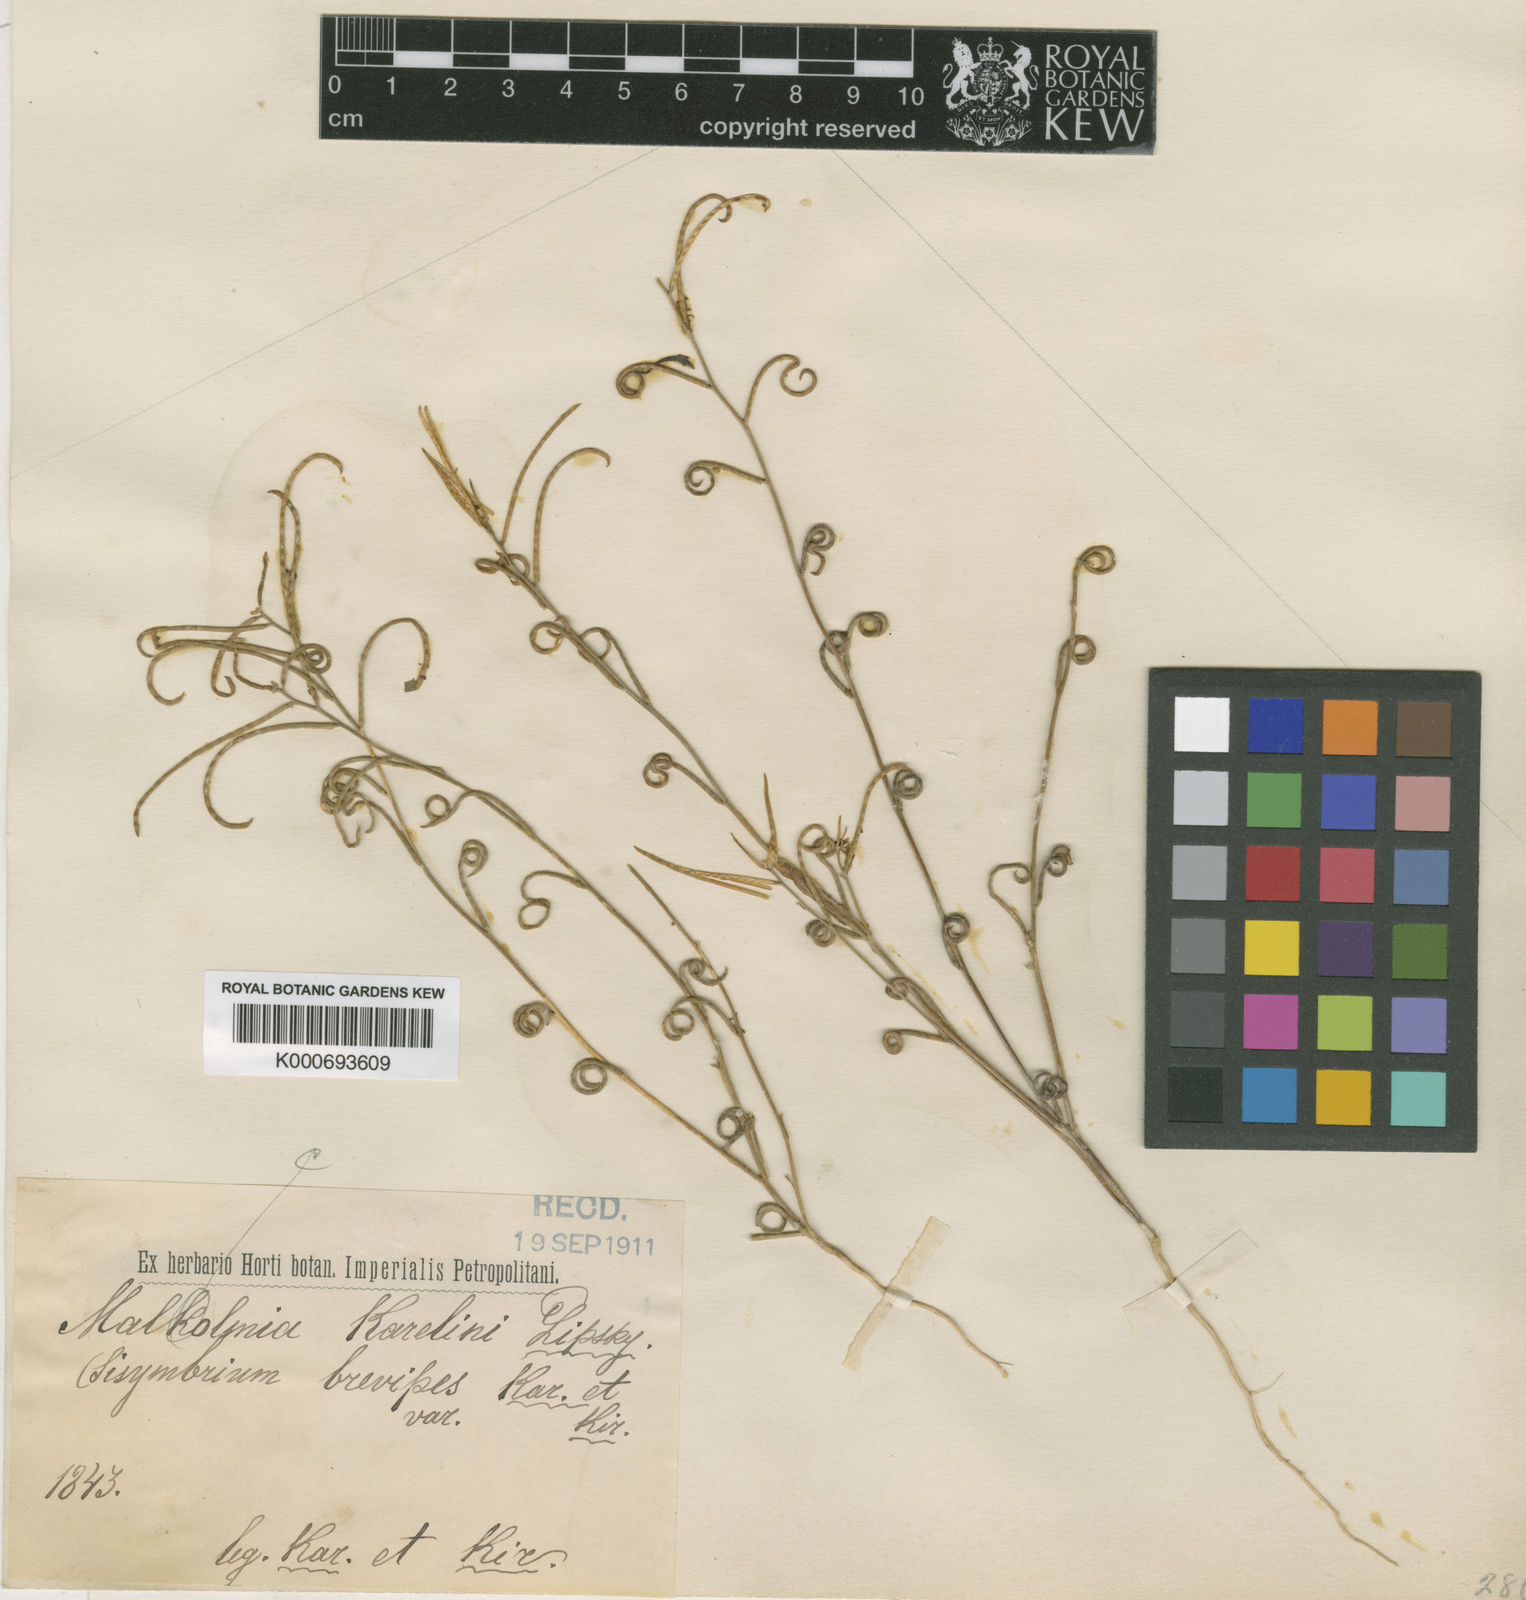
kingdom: Plantae
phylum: Tracheophyta
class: Magnoliopsida
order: Brassicales
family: Brassicaceae
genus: Strigosella
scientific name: Strigosella brevipes
